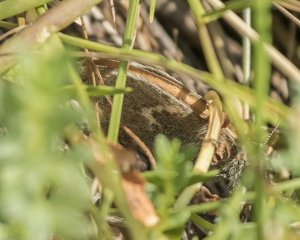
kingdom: Animalia
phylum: Arthropoda
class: Insecta
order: Lepidoptera
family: Nymphalidae
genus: Coenonympha
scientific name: Coenonympha inornata
